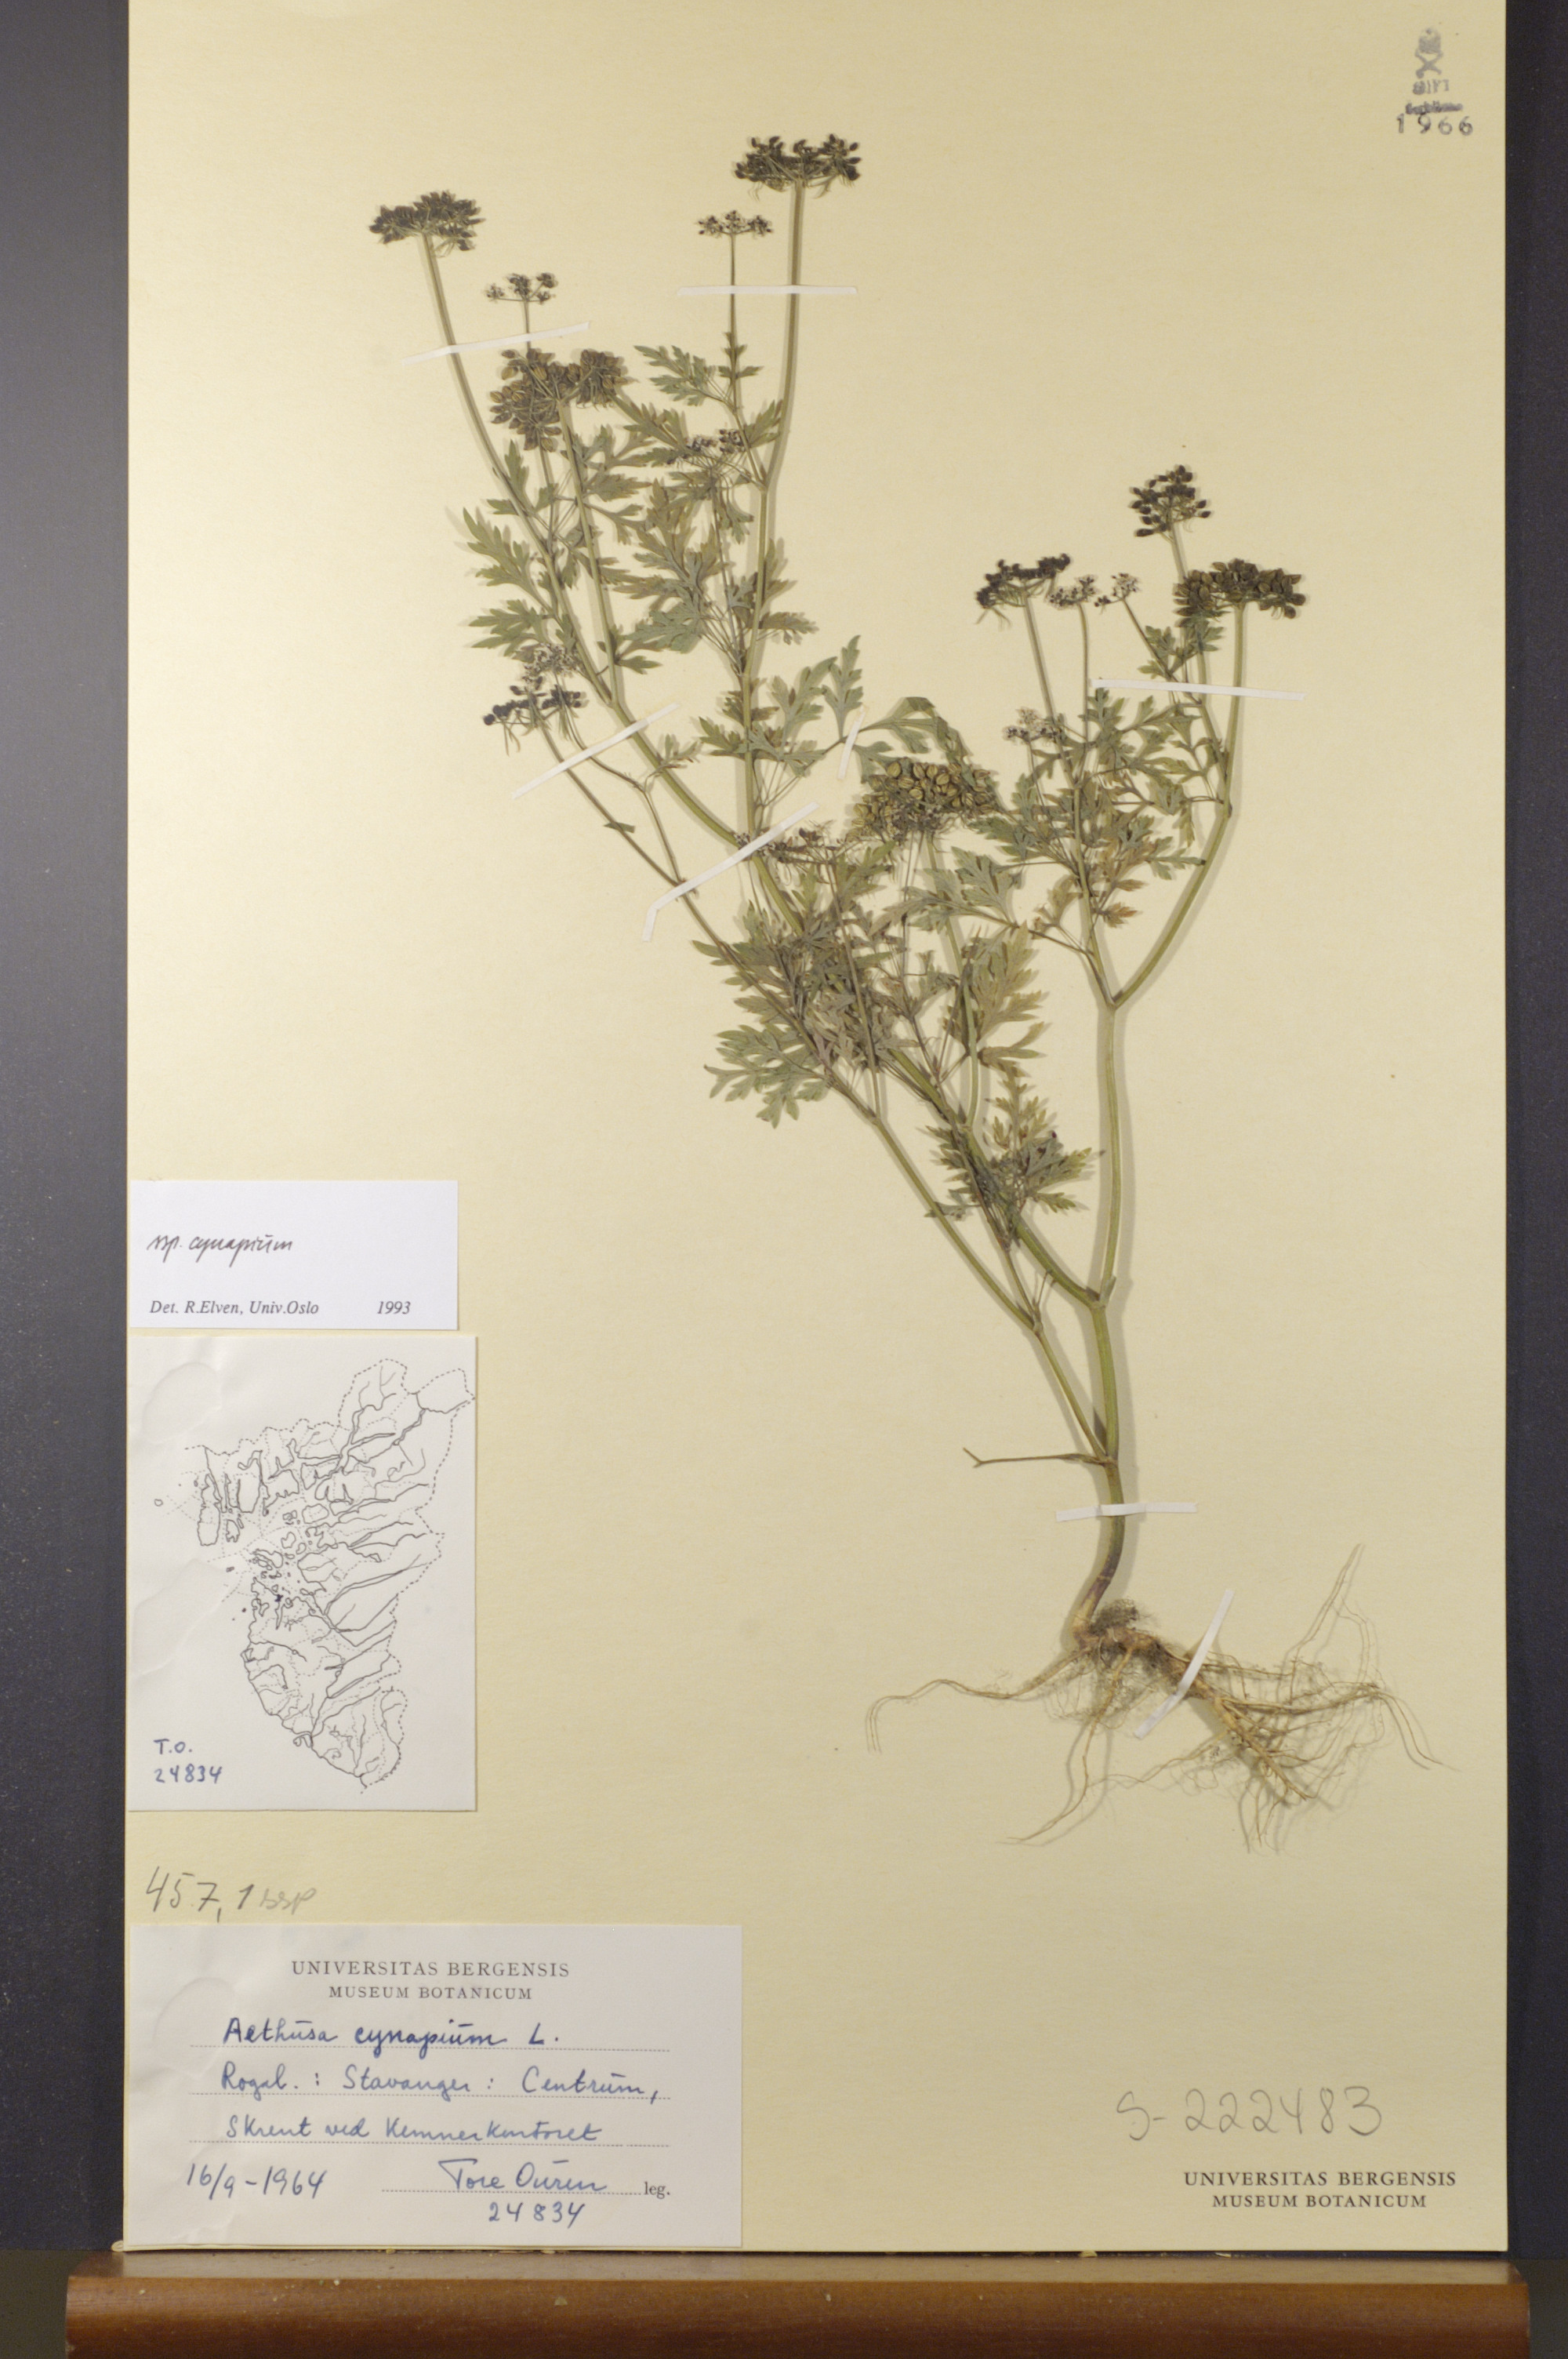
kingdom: Plantae
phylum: Tracheophyta
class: Magnoliopsida
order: Apiales
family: Apiaceae
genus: Aethusa
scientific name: Aethusa cynapium
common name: Fool's parsley
